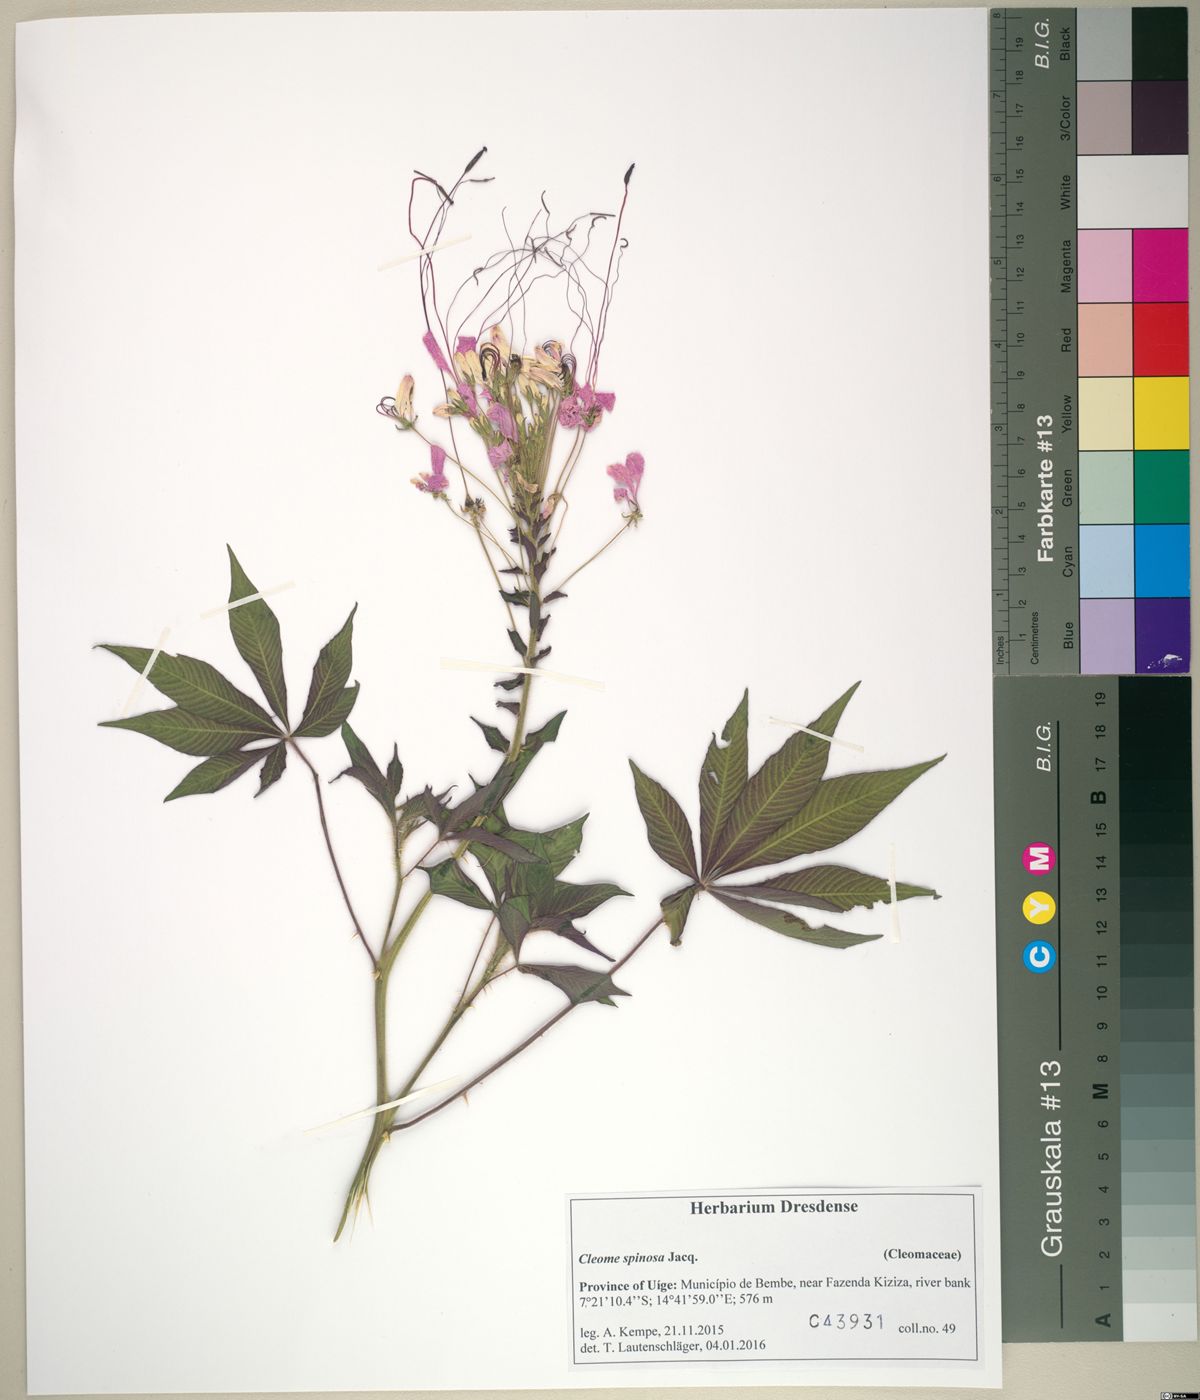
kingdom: Plantae
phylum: Tracheophyta
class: Magnoliopsida
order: Brassicales
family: Cleomaceae
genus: Tarenaya
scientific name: Tarenaya spinosa
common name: Spiny spiderflower
